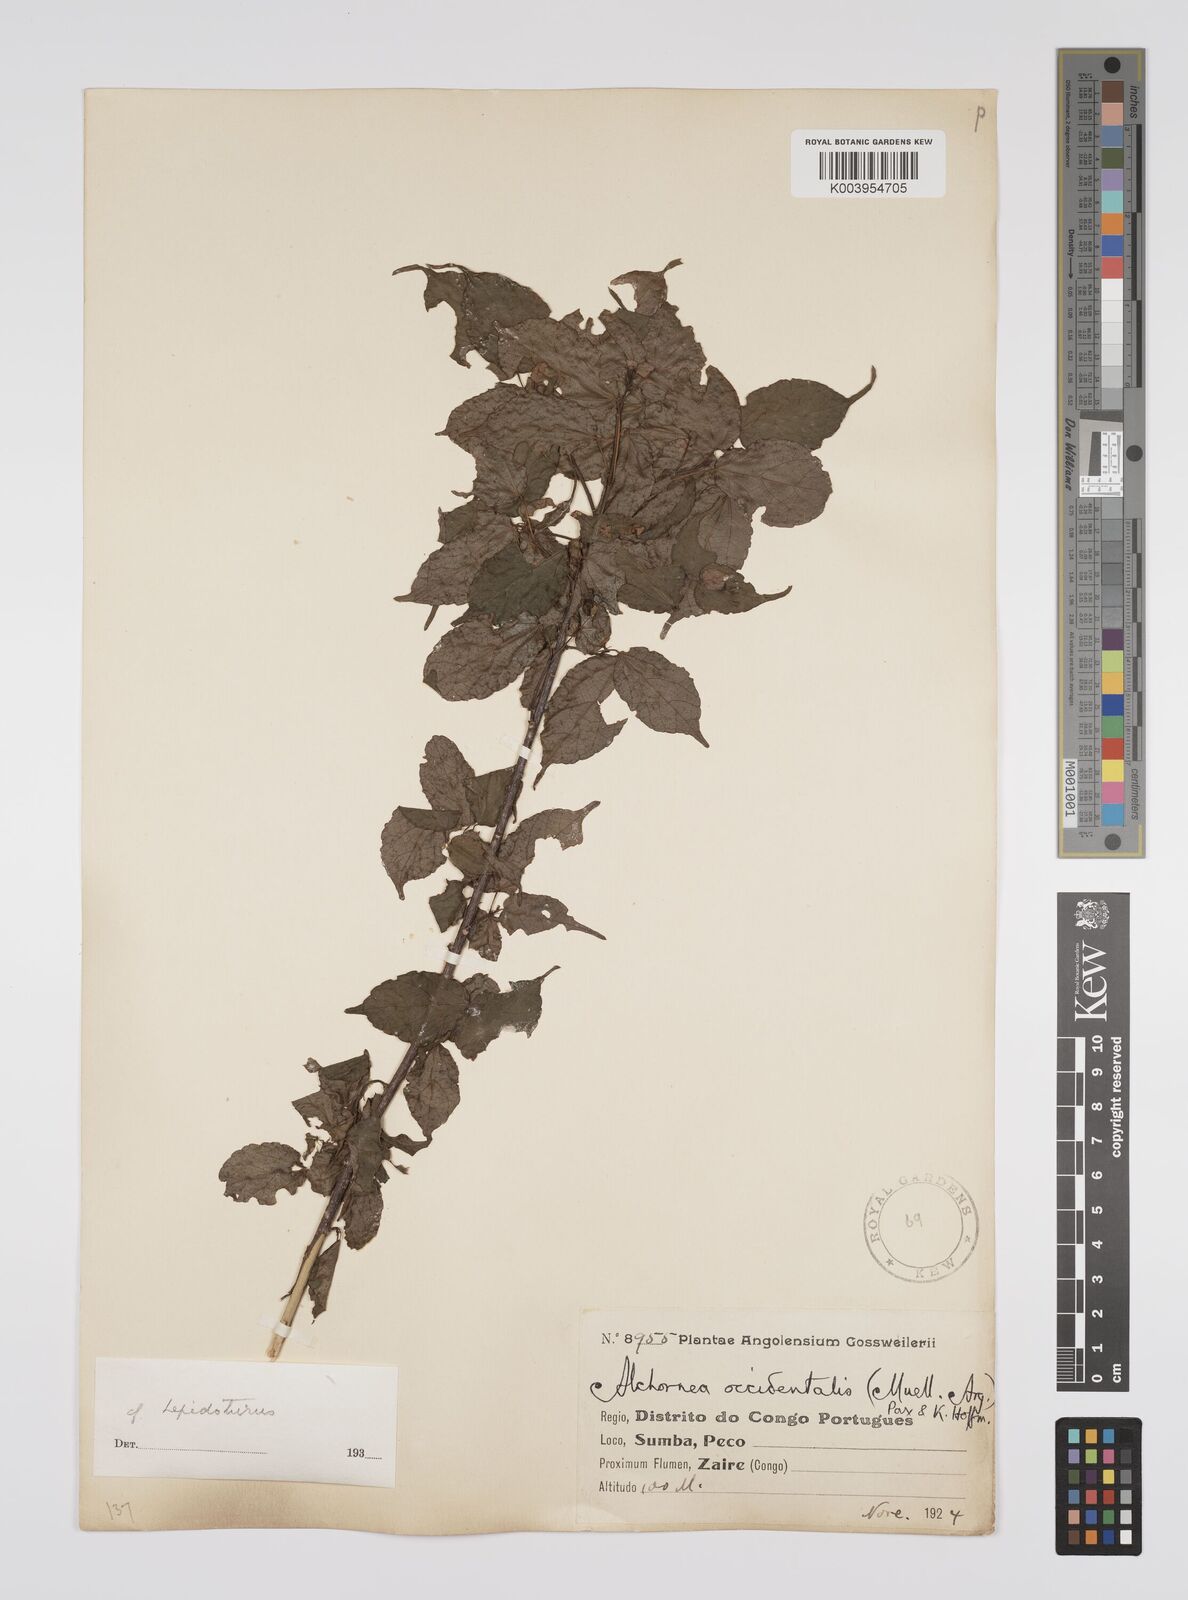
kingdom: Plantae
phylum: Tracheophyta
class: Magnoliopsida
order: Malpighiales
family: Euphorbiaceae
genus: Alchornea
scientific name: Alchornea occidentalis
